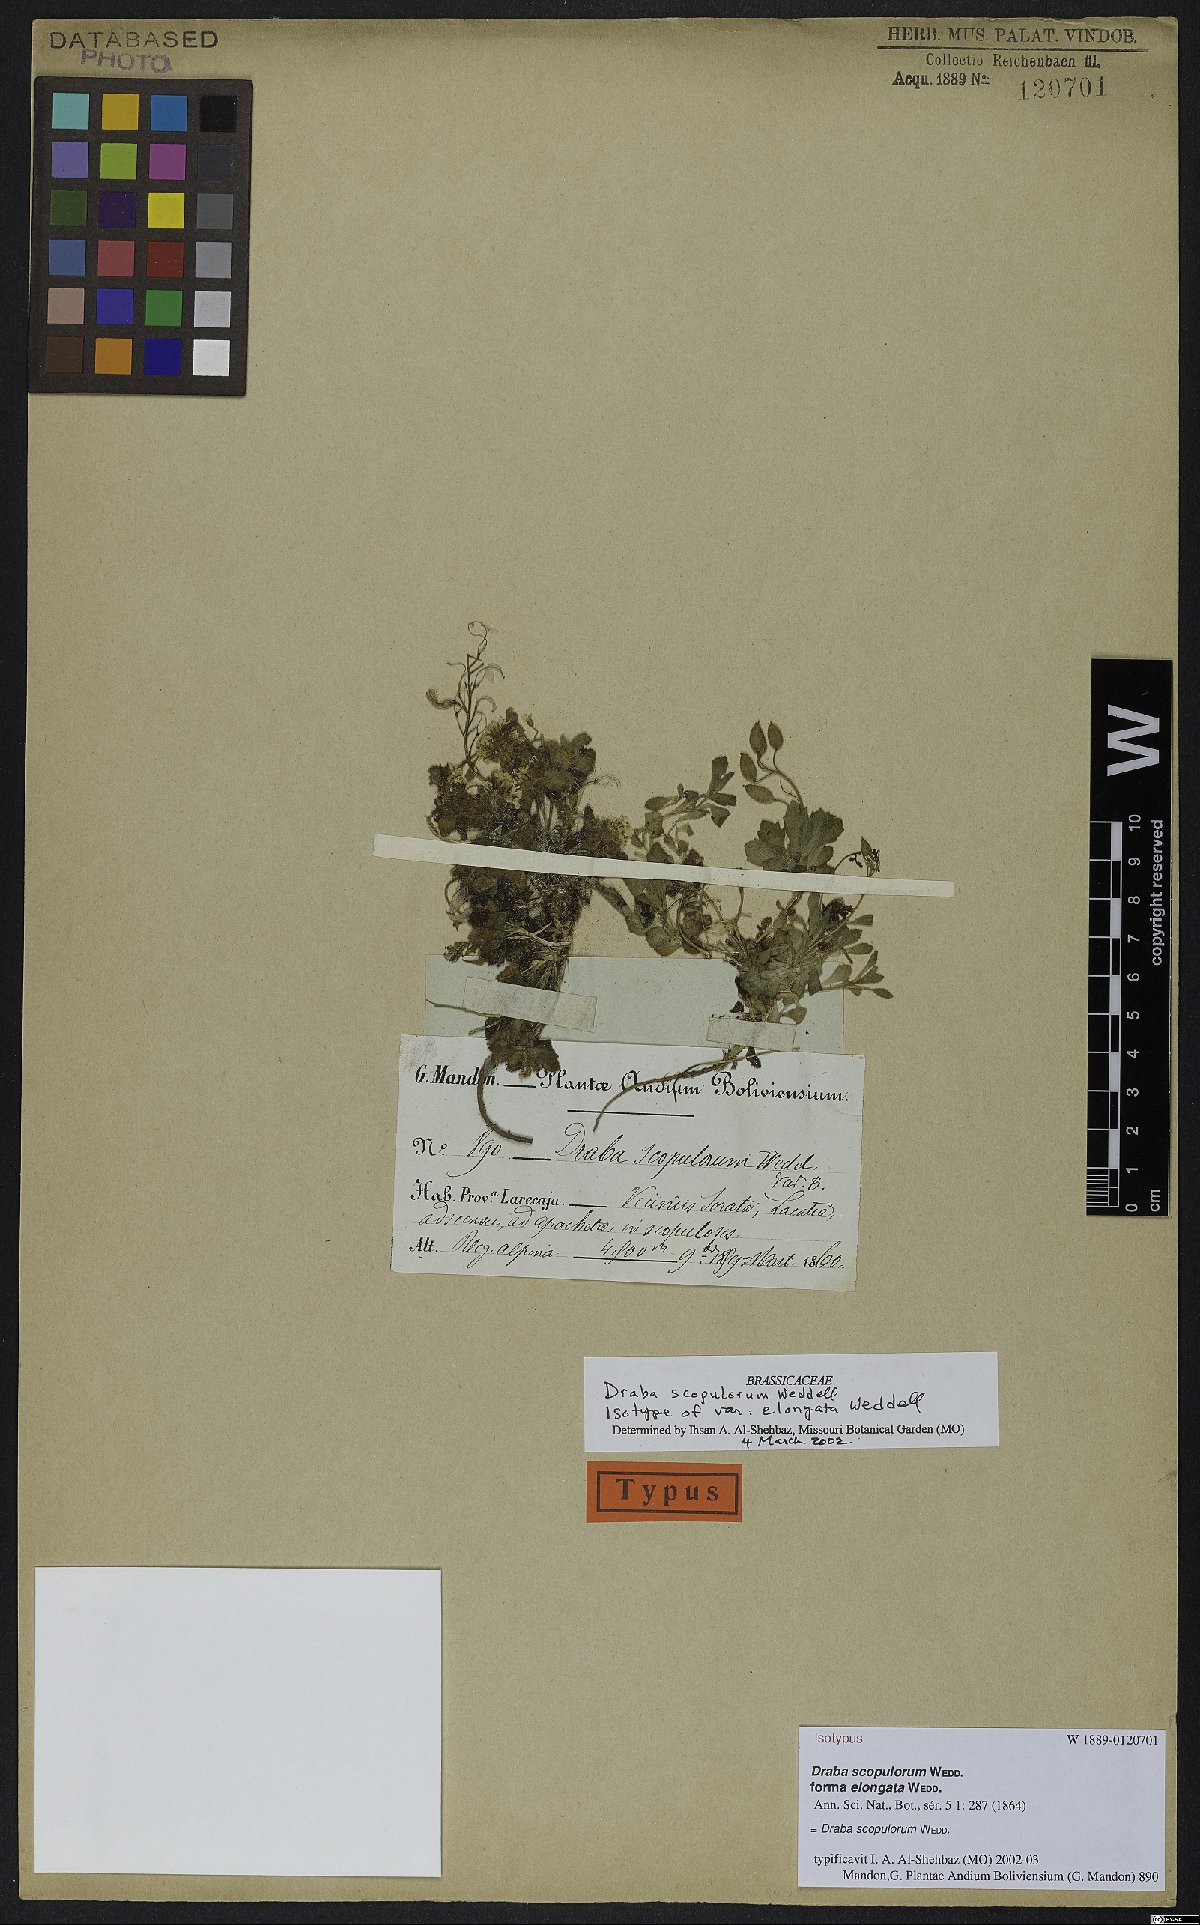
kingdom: Plantae
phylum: Tracheophyta
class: Magnoliopsida
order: Brassicales
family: Brassicaceae
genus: Draba
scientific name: Draba scopulorum
